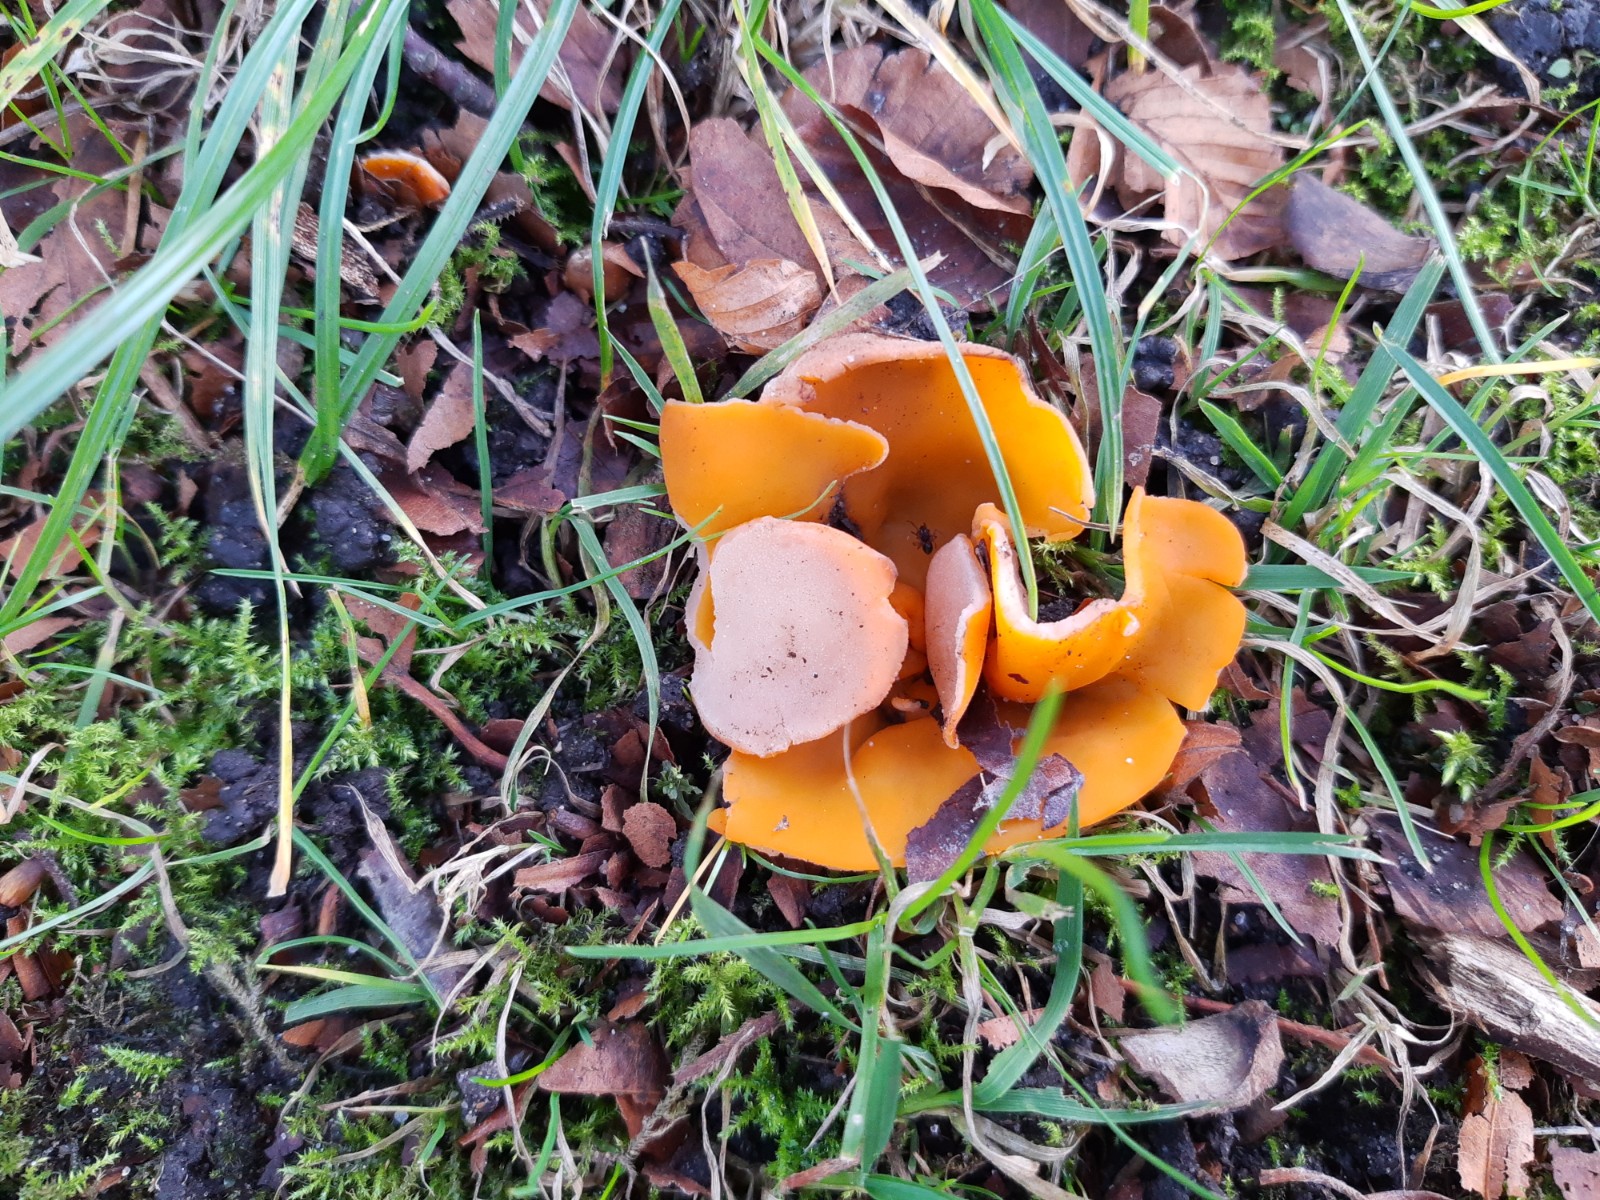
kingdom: Fungi
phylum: Ascomycota
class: Pezizomycetes
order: Pezizales
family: Pyronemataceae
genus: Aleuria
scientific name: Aleuria aurantia
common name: almindelig orangebæger
